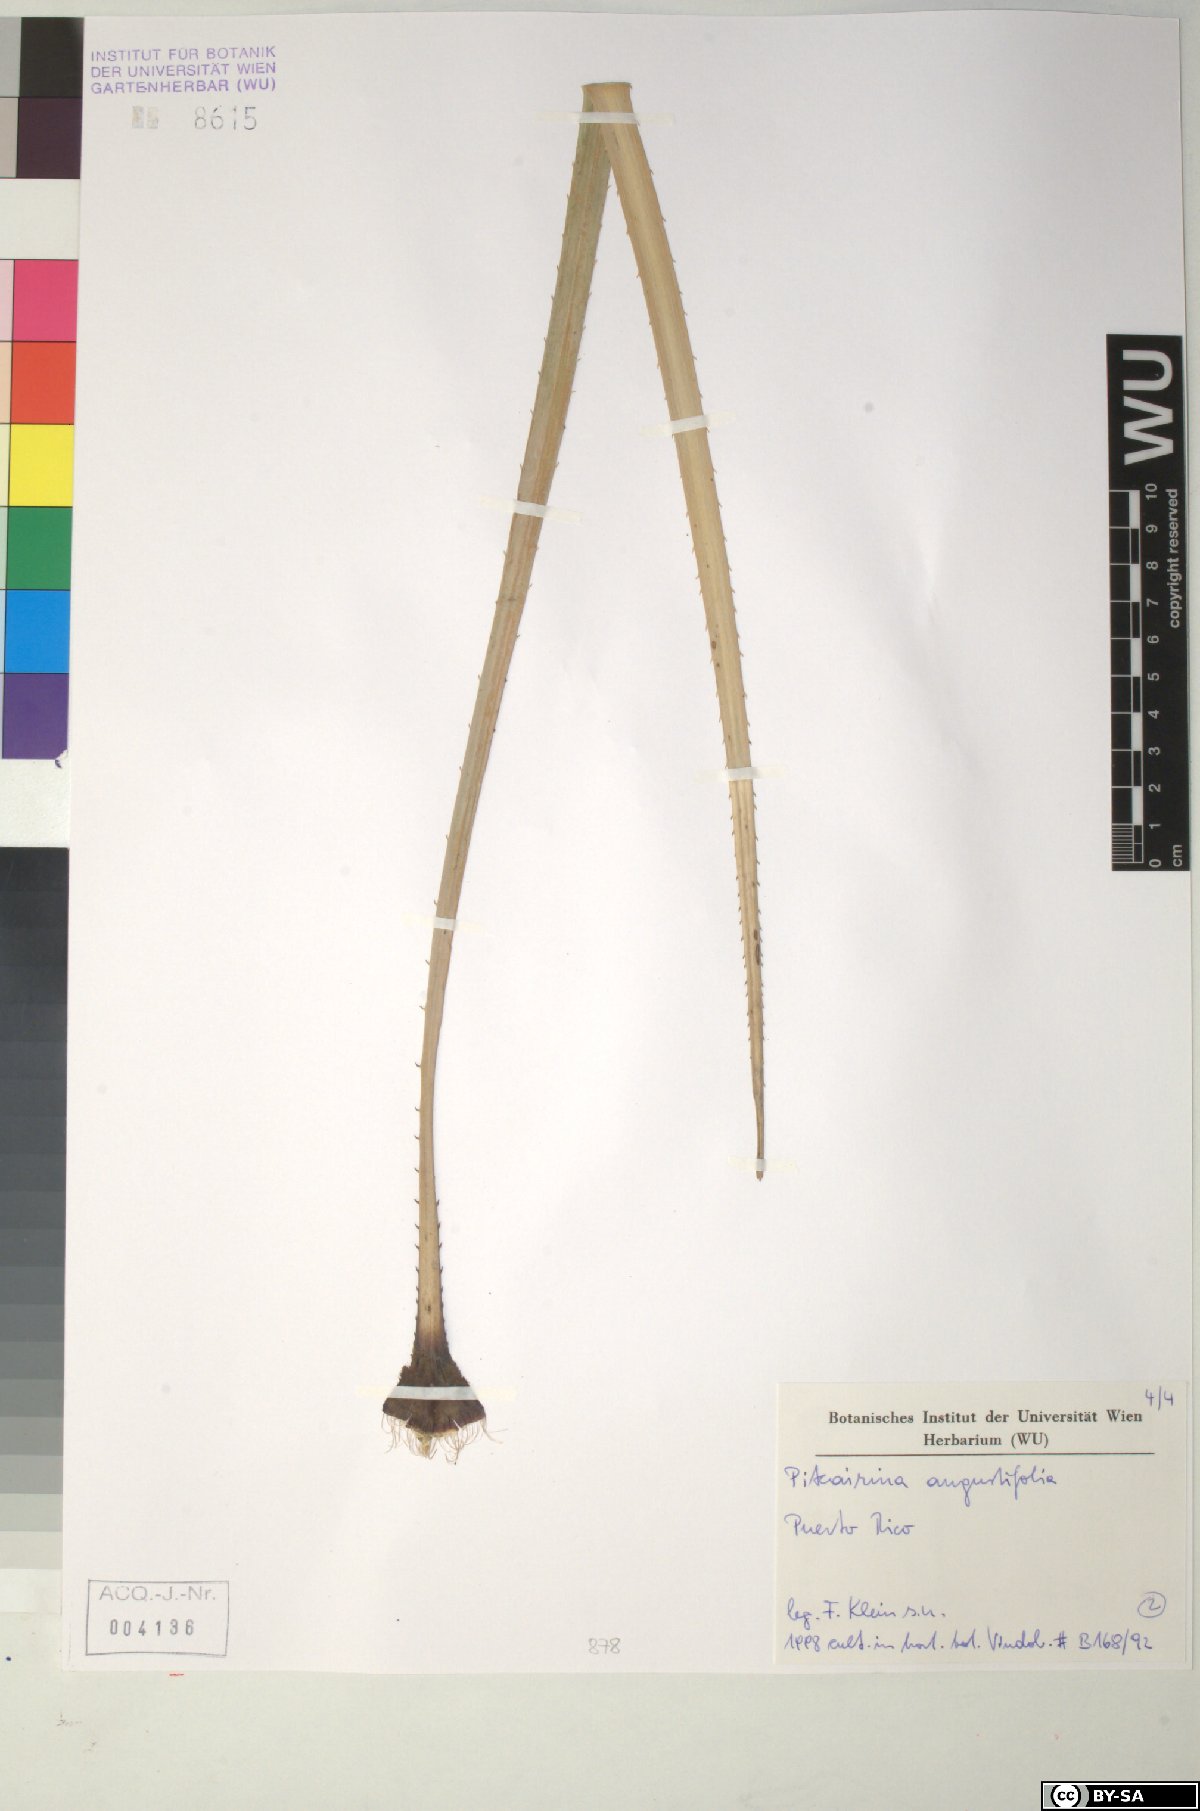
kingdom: Plantae
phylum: Tracheophyta
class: Liliopsida
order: Poales
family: Bromeliaceae
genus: Pitcairnia
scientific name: Pitcairnia angustifolia
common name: Clapper
